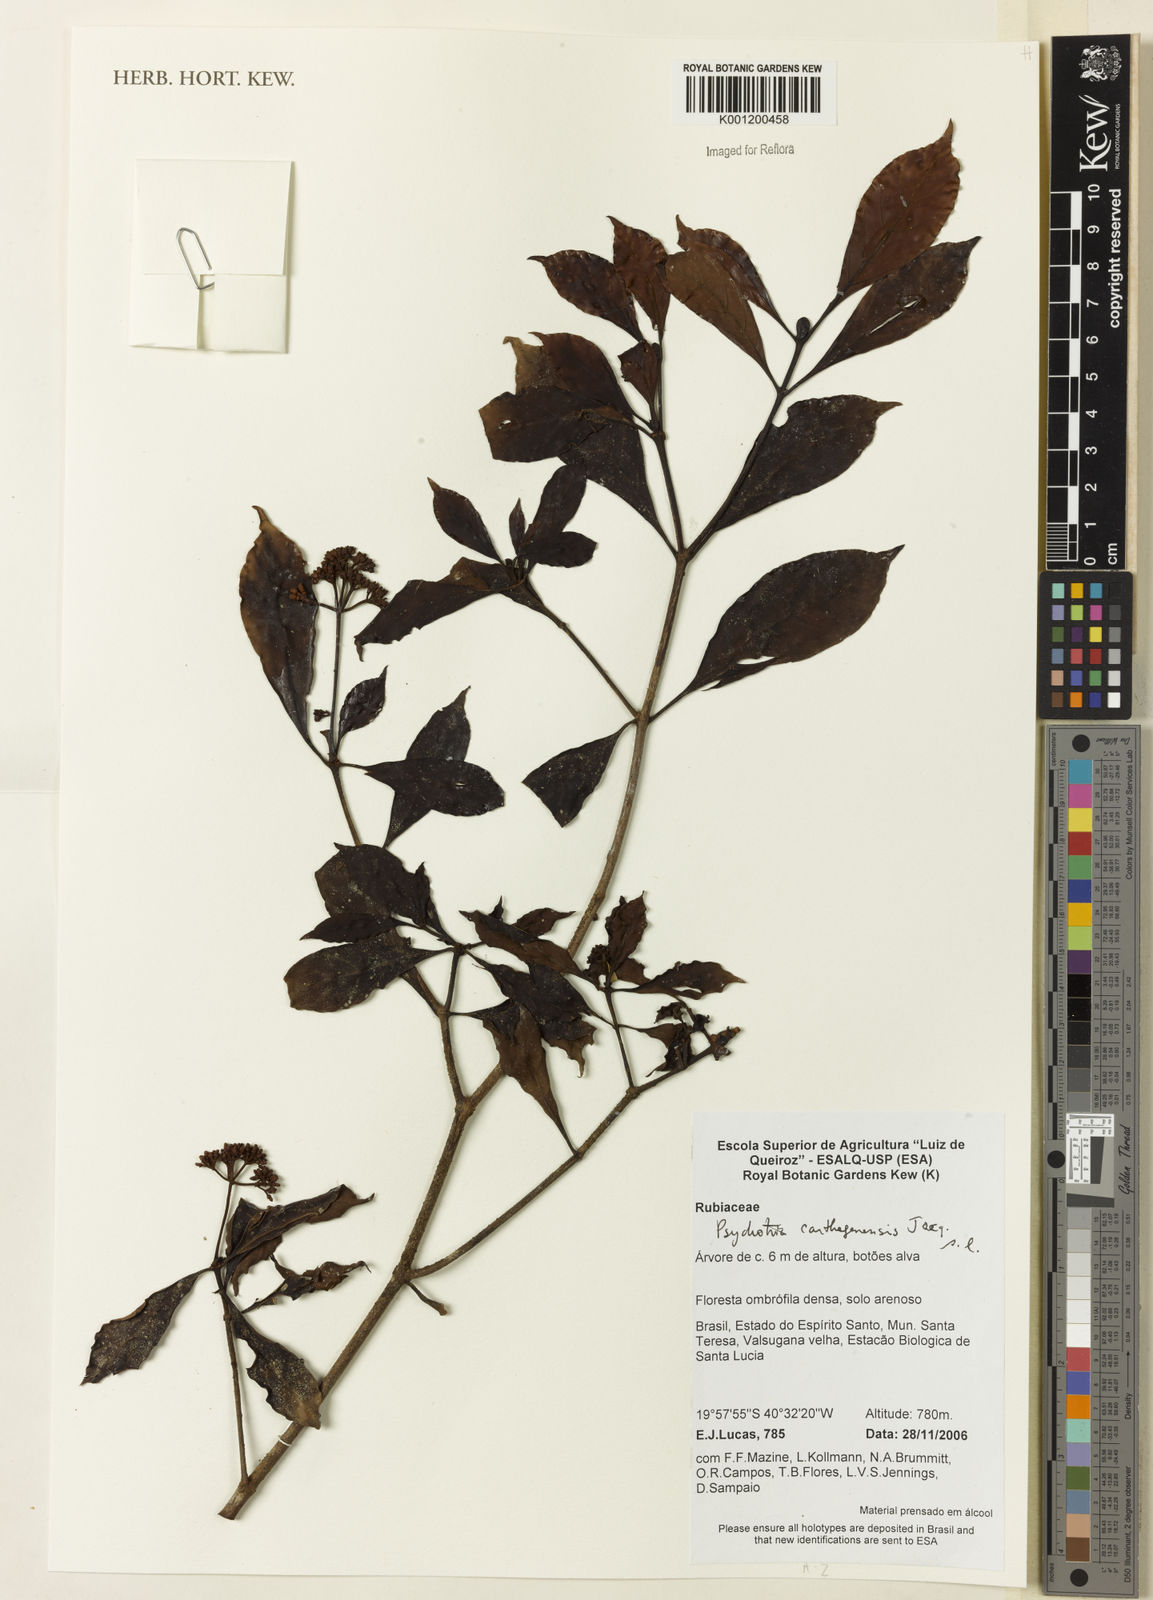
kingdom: Plantae
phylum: Tracheophyta
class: Magnoliopsida
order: Gentianales
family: Rubiaceae
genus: Psychotria
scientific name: Psychotria carthagenensis
